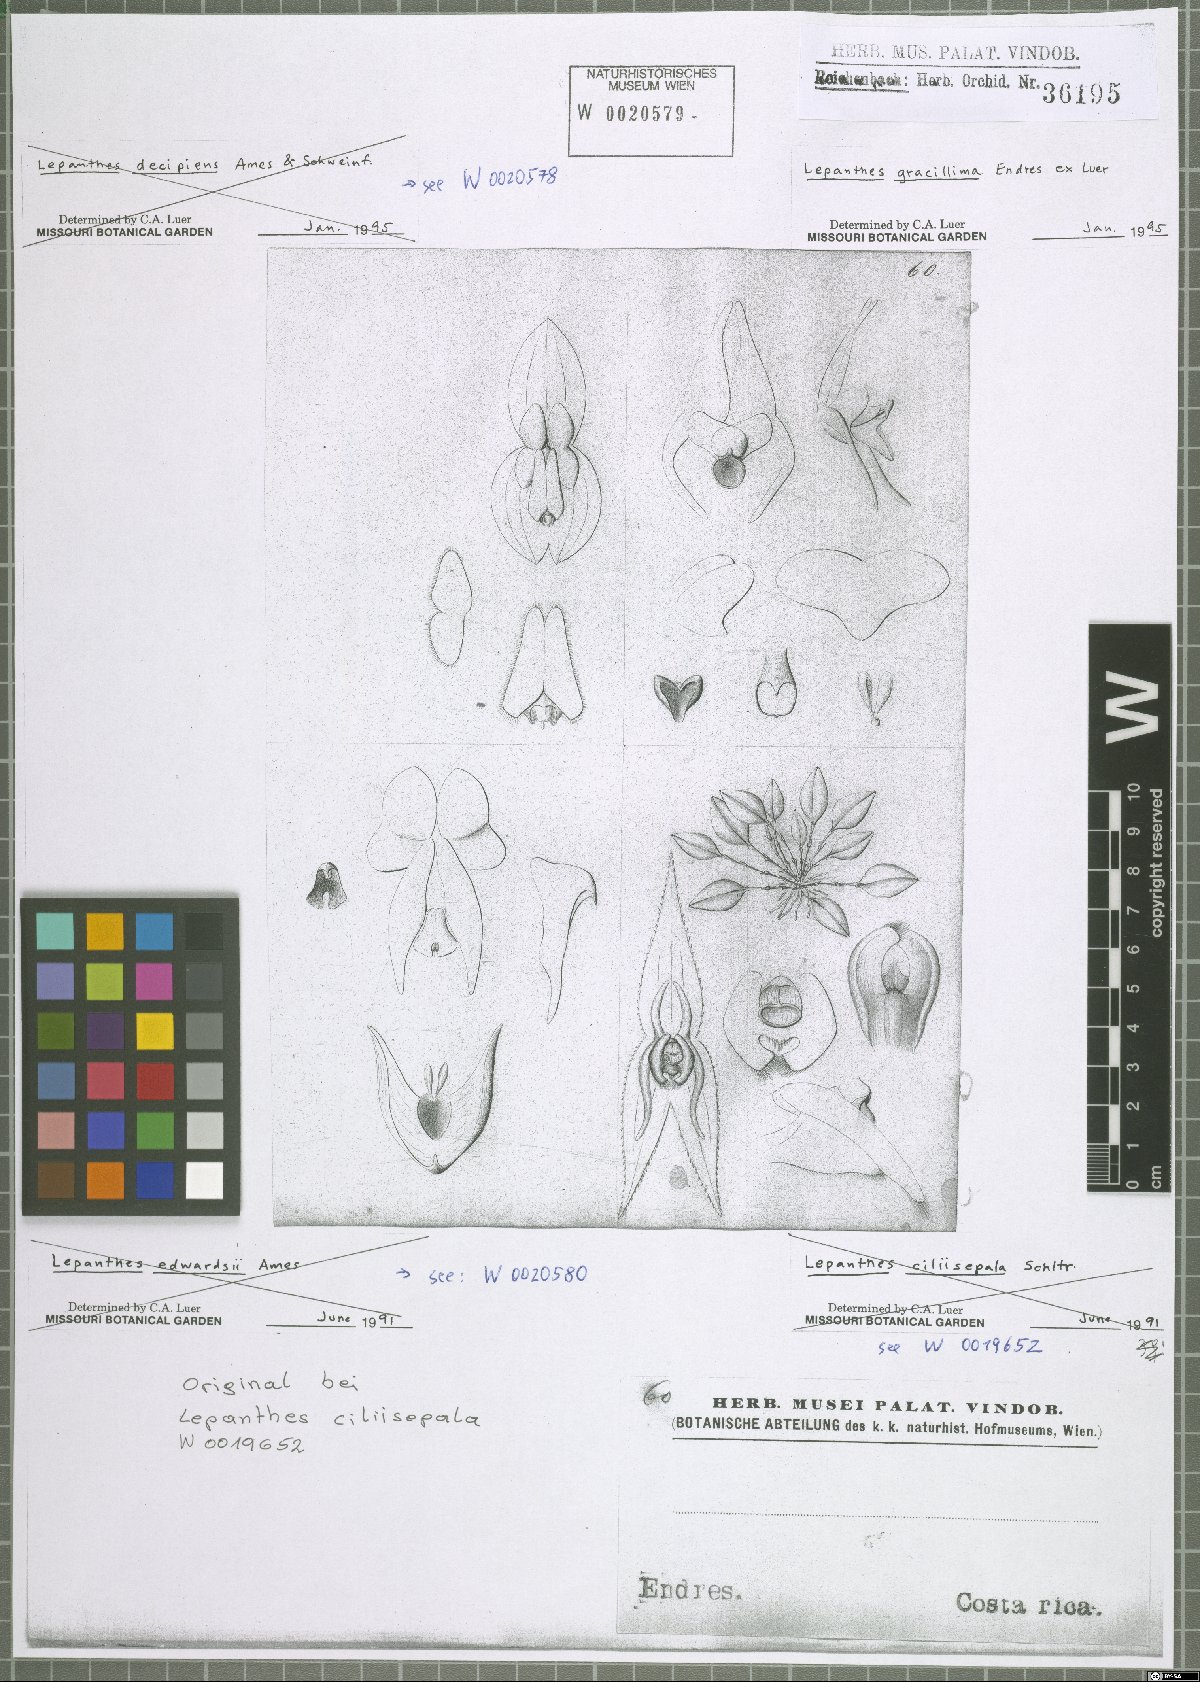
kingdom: Plantae
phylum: Tracheophyta
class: Liliopsida
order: Asparagales
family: Orchidaceae
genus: Lepanthes
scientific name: Lepanthes gracillima
